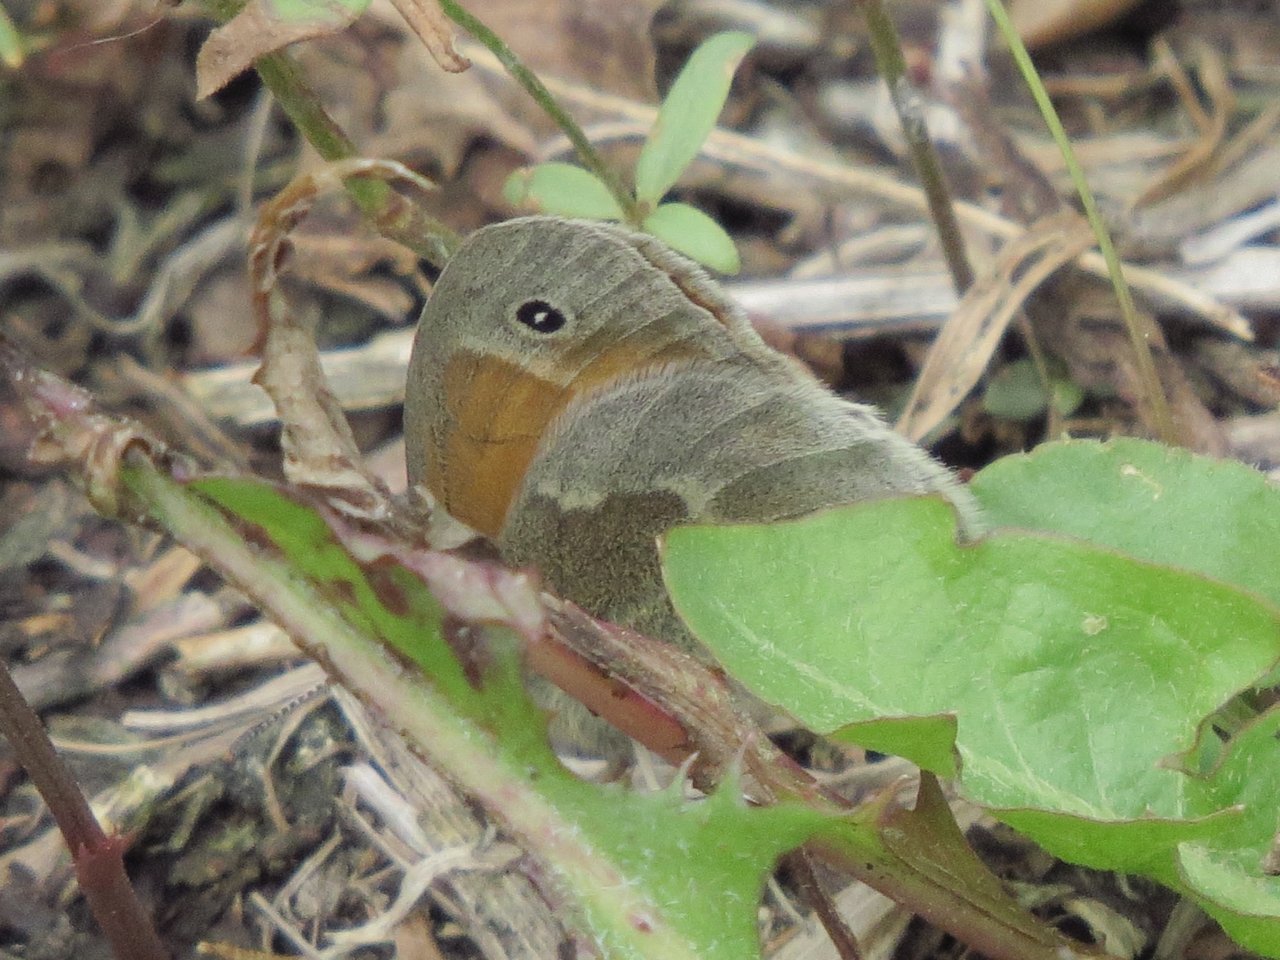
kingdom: Animalia
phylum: Arthropoda
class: Insecta
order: Lepidoptera
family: Nymphalidae
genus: Coenonympha
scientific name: Coenonympha tullia
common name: Large Heath
